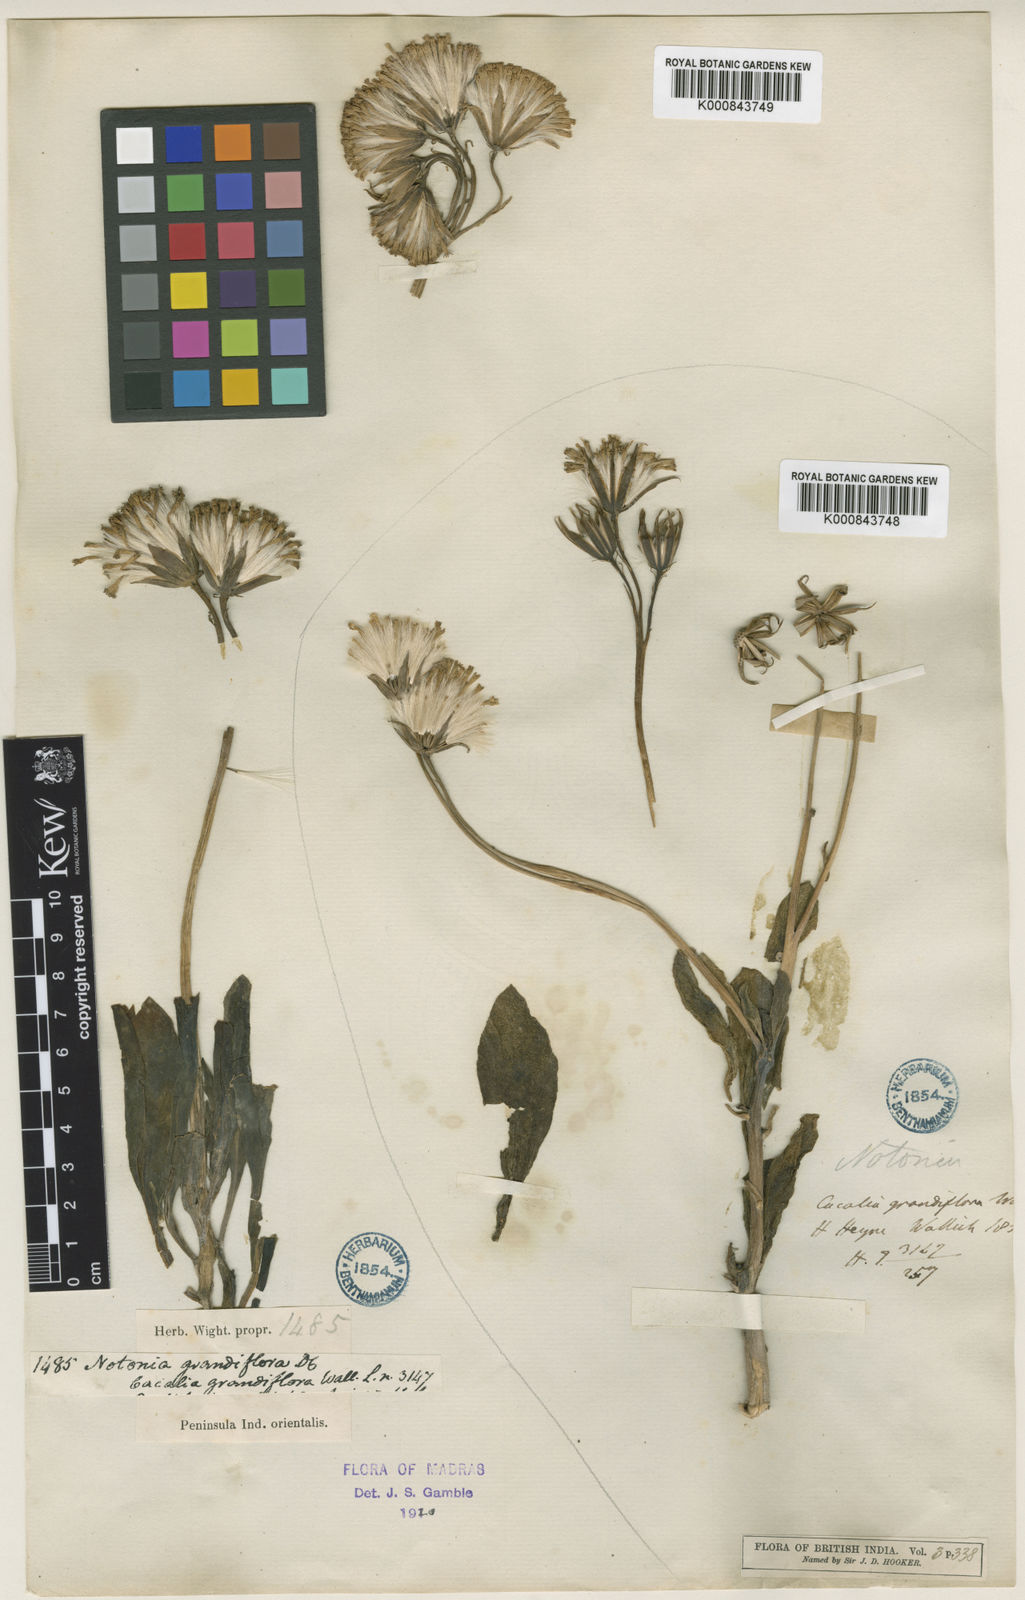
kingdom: Plantae
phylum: Tracheophyta
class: Magnoliopsida
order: Asterales
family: Asteraceae
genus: Kleinia
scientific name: Kleinia grandiflora
